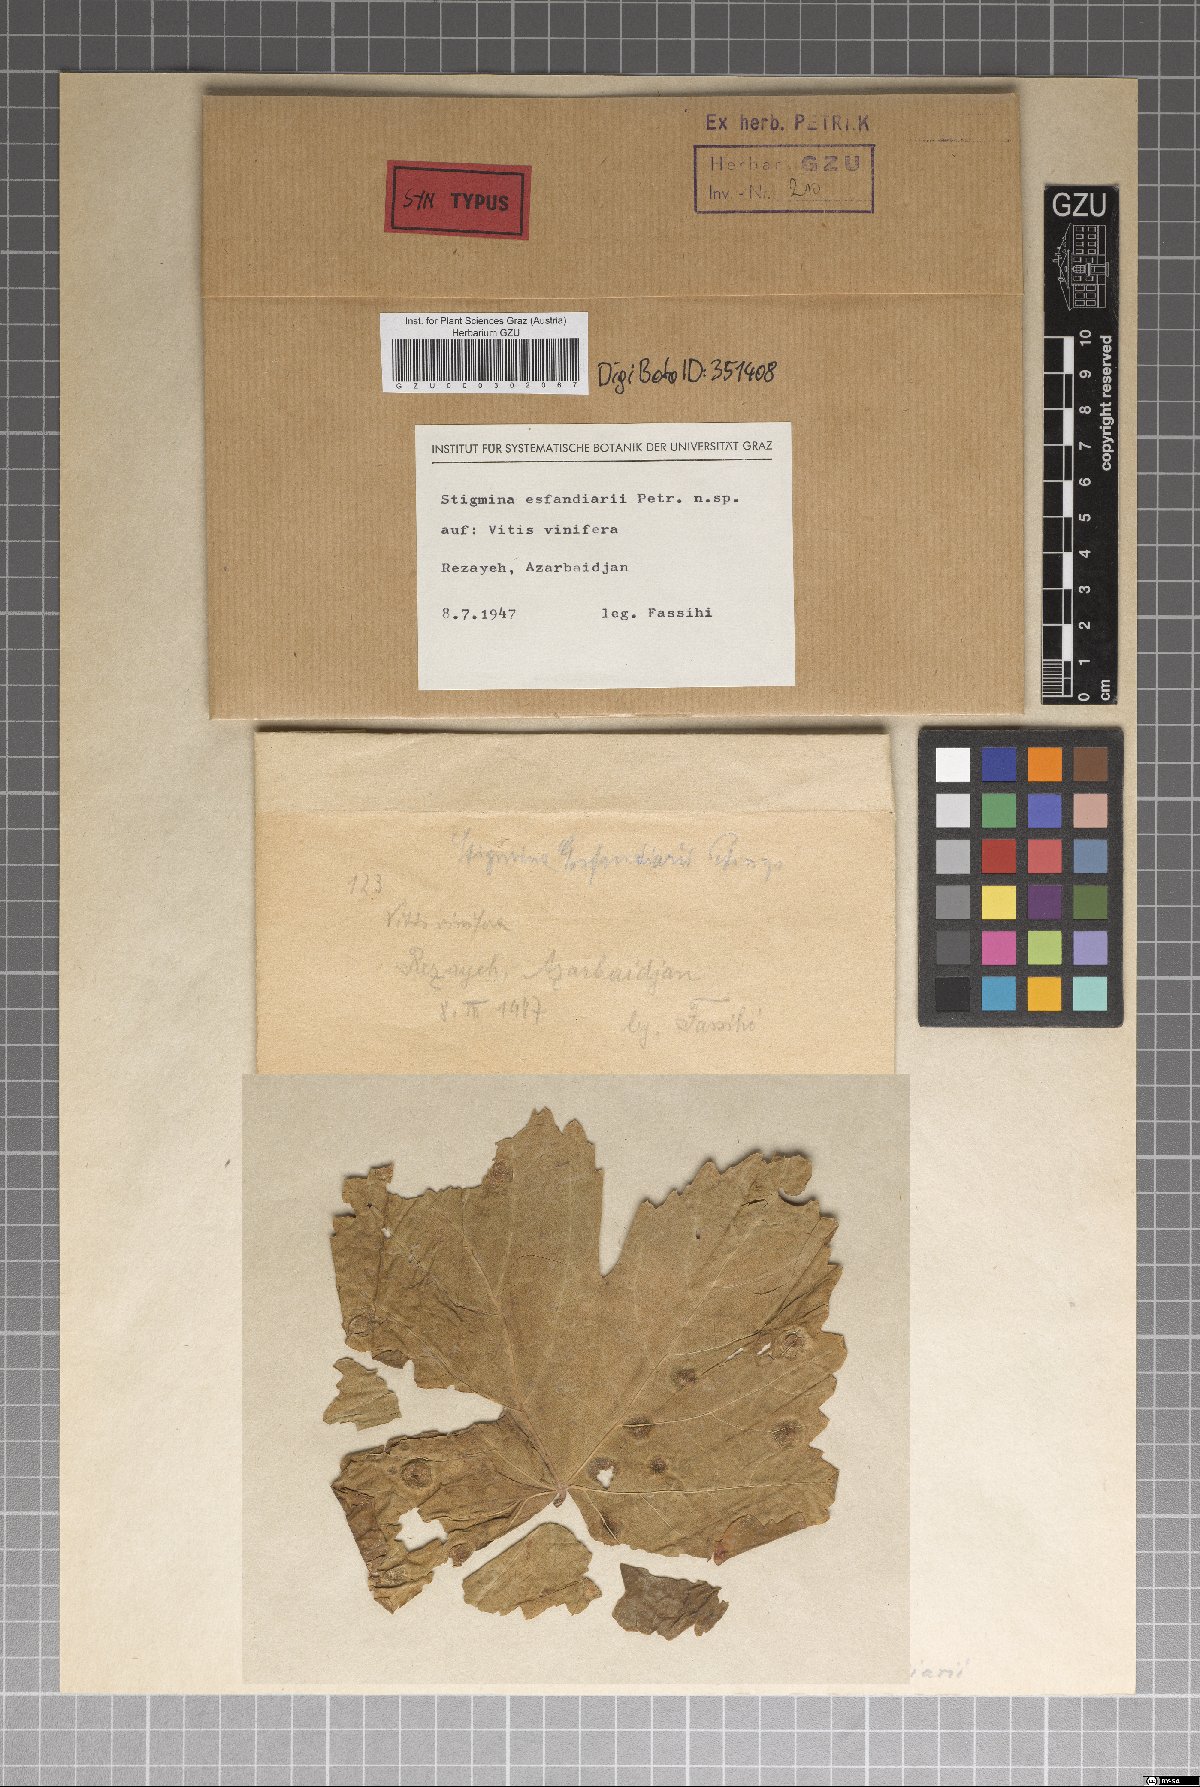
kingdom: Fungi
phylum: Ascomycota
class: Dothideomycetes
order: Mycosphaerellales
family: Mycosphaerellaceae
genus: Stigmina
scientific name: Stigmina esfandiarii
